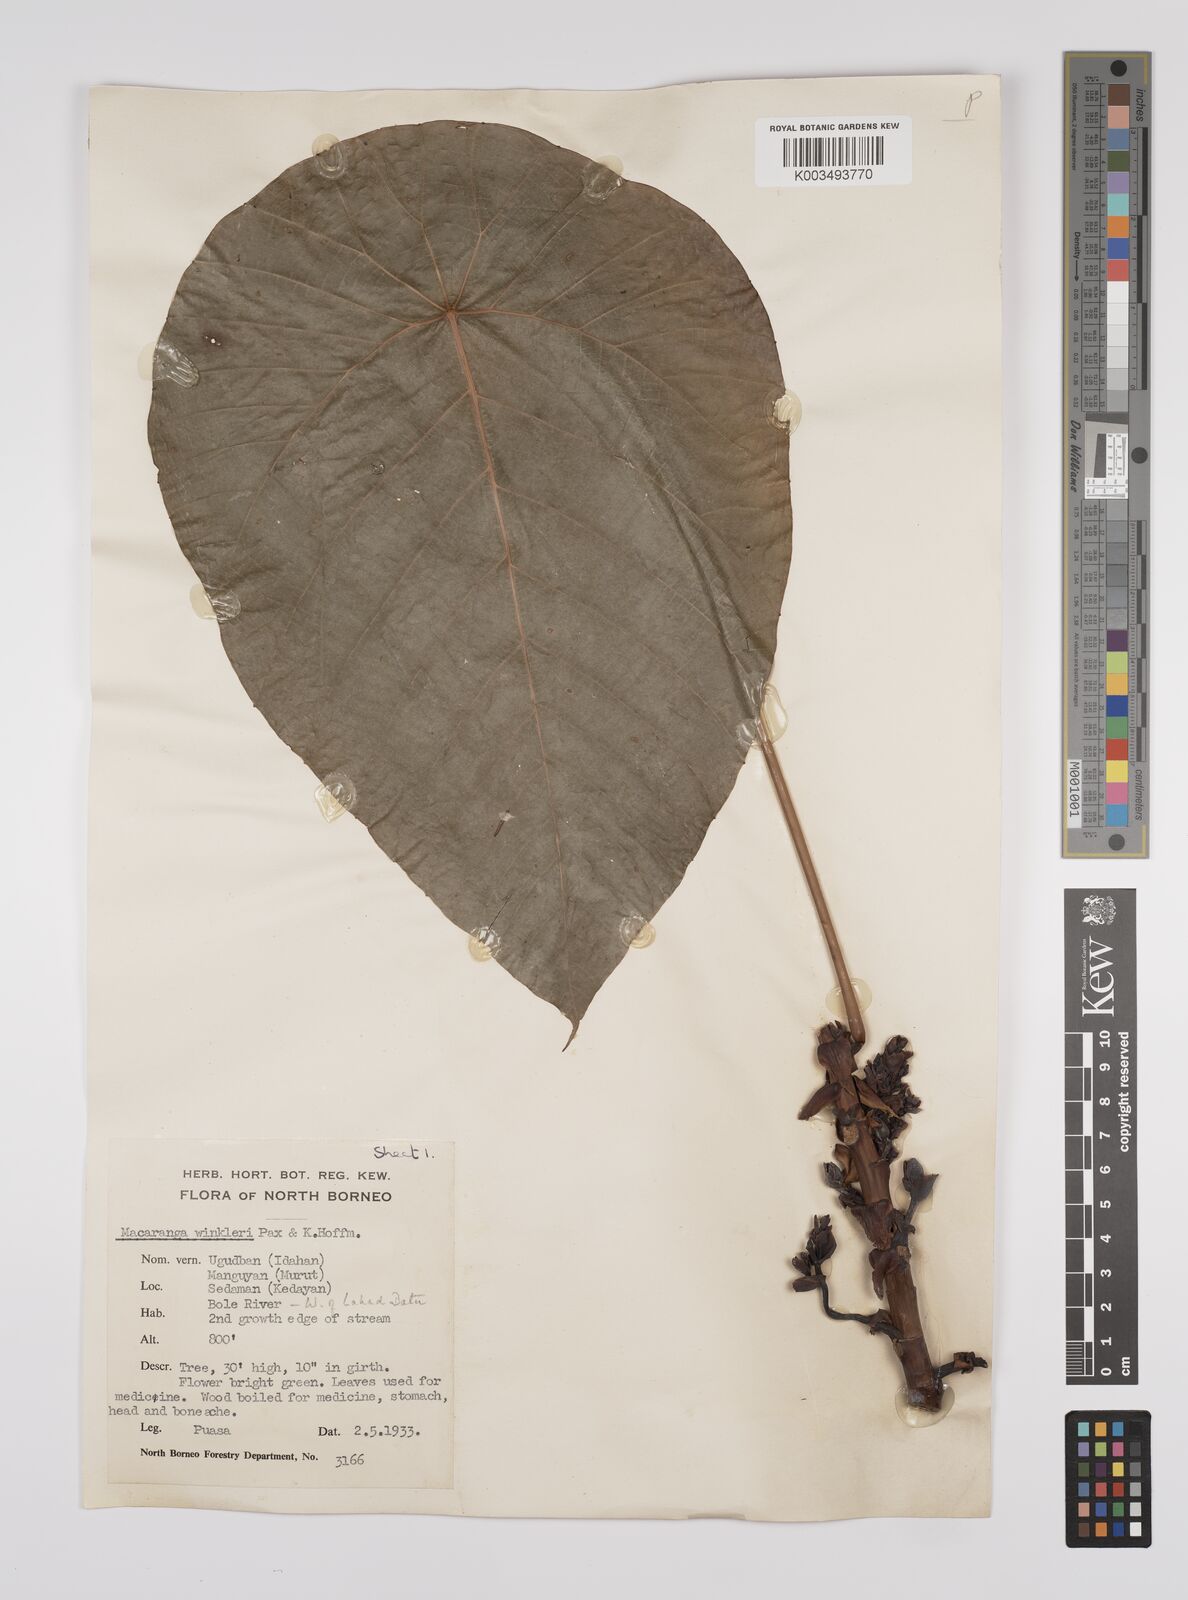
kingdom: Plantae
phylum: Tracheophyta
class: Magnoliopsida
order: Malpighiales
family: Euphorbiaceae
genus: Macaranga
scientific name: Macaranga winkleri
